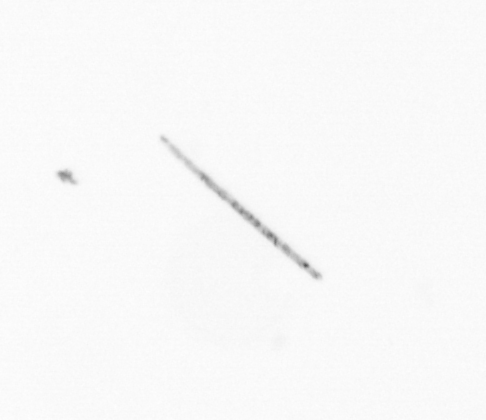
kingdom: Chromista
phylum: Ochrophyta
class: Bacillariophyceae
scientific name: Bacillariophyceae
